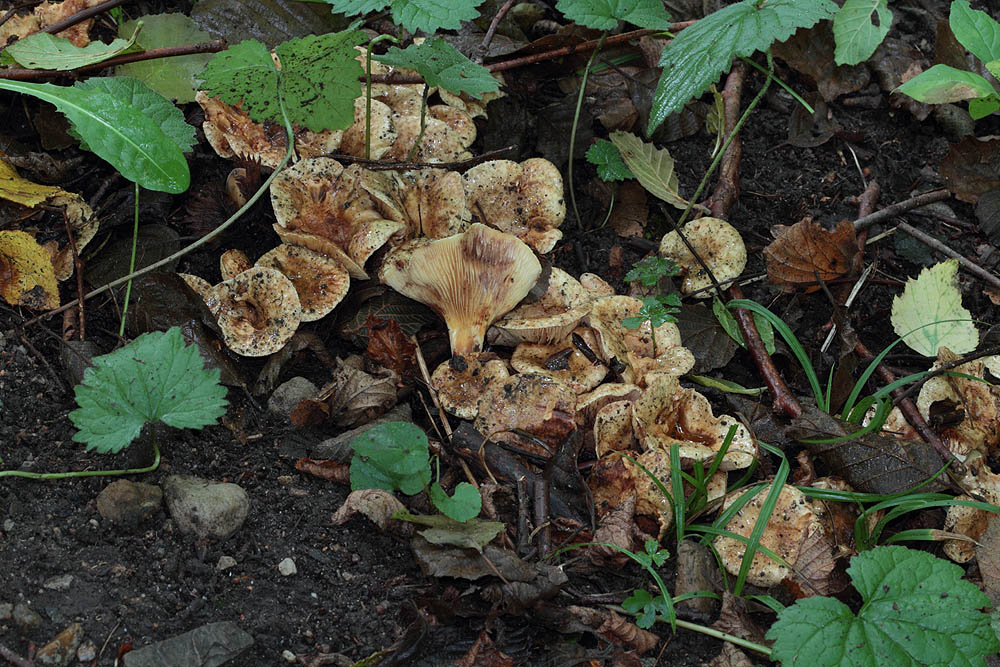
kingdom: Fungi
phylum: Basidiomycota
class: Agaricomycetes
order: Boletales
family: Paxillaceae
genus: Paxillus
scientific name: Paxillus rubicundulus
